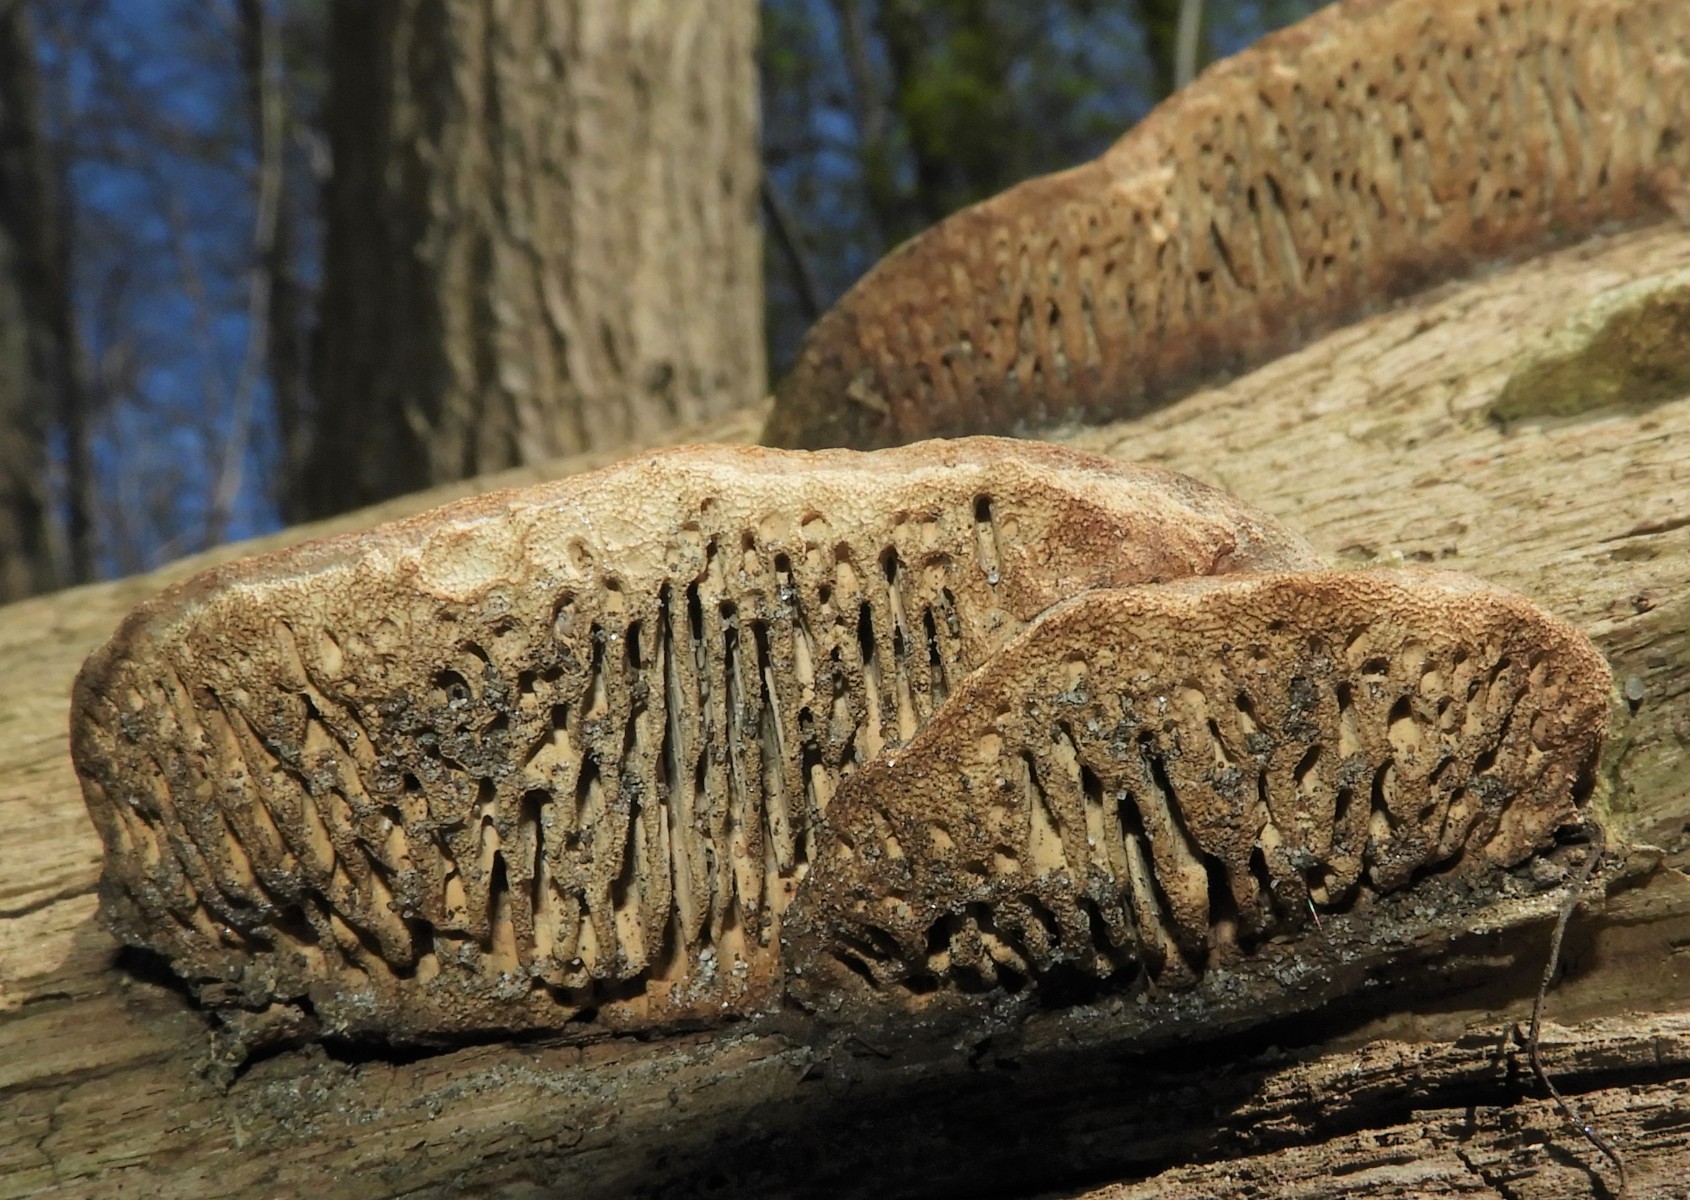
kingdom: Fungi
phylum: Basidiomycota
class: Agaricomycetes
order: Polyporales
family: Fomitopsidaceae
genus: Daedalea
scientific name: Daedalea quercina
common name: ege-labyrintsvamp
